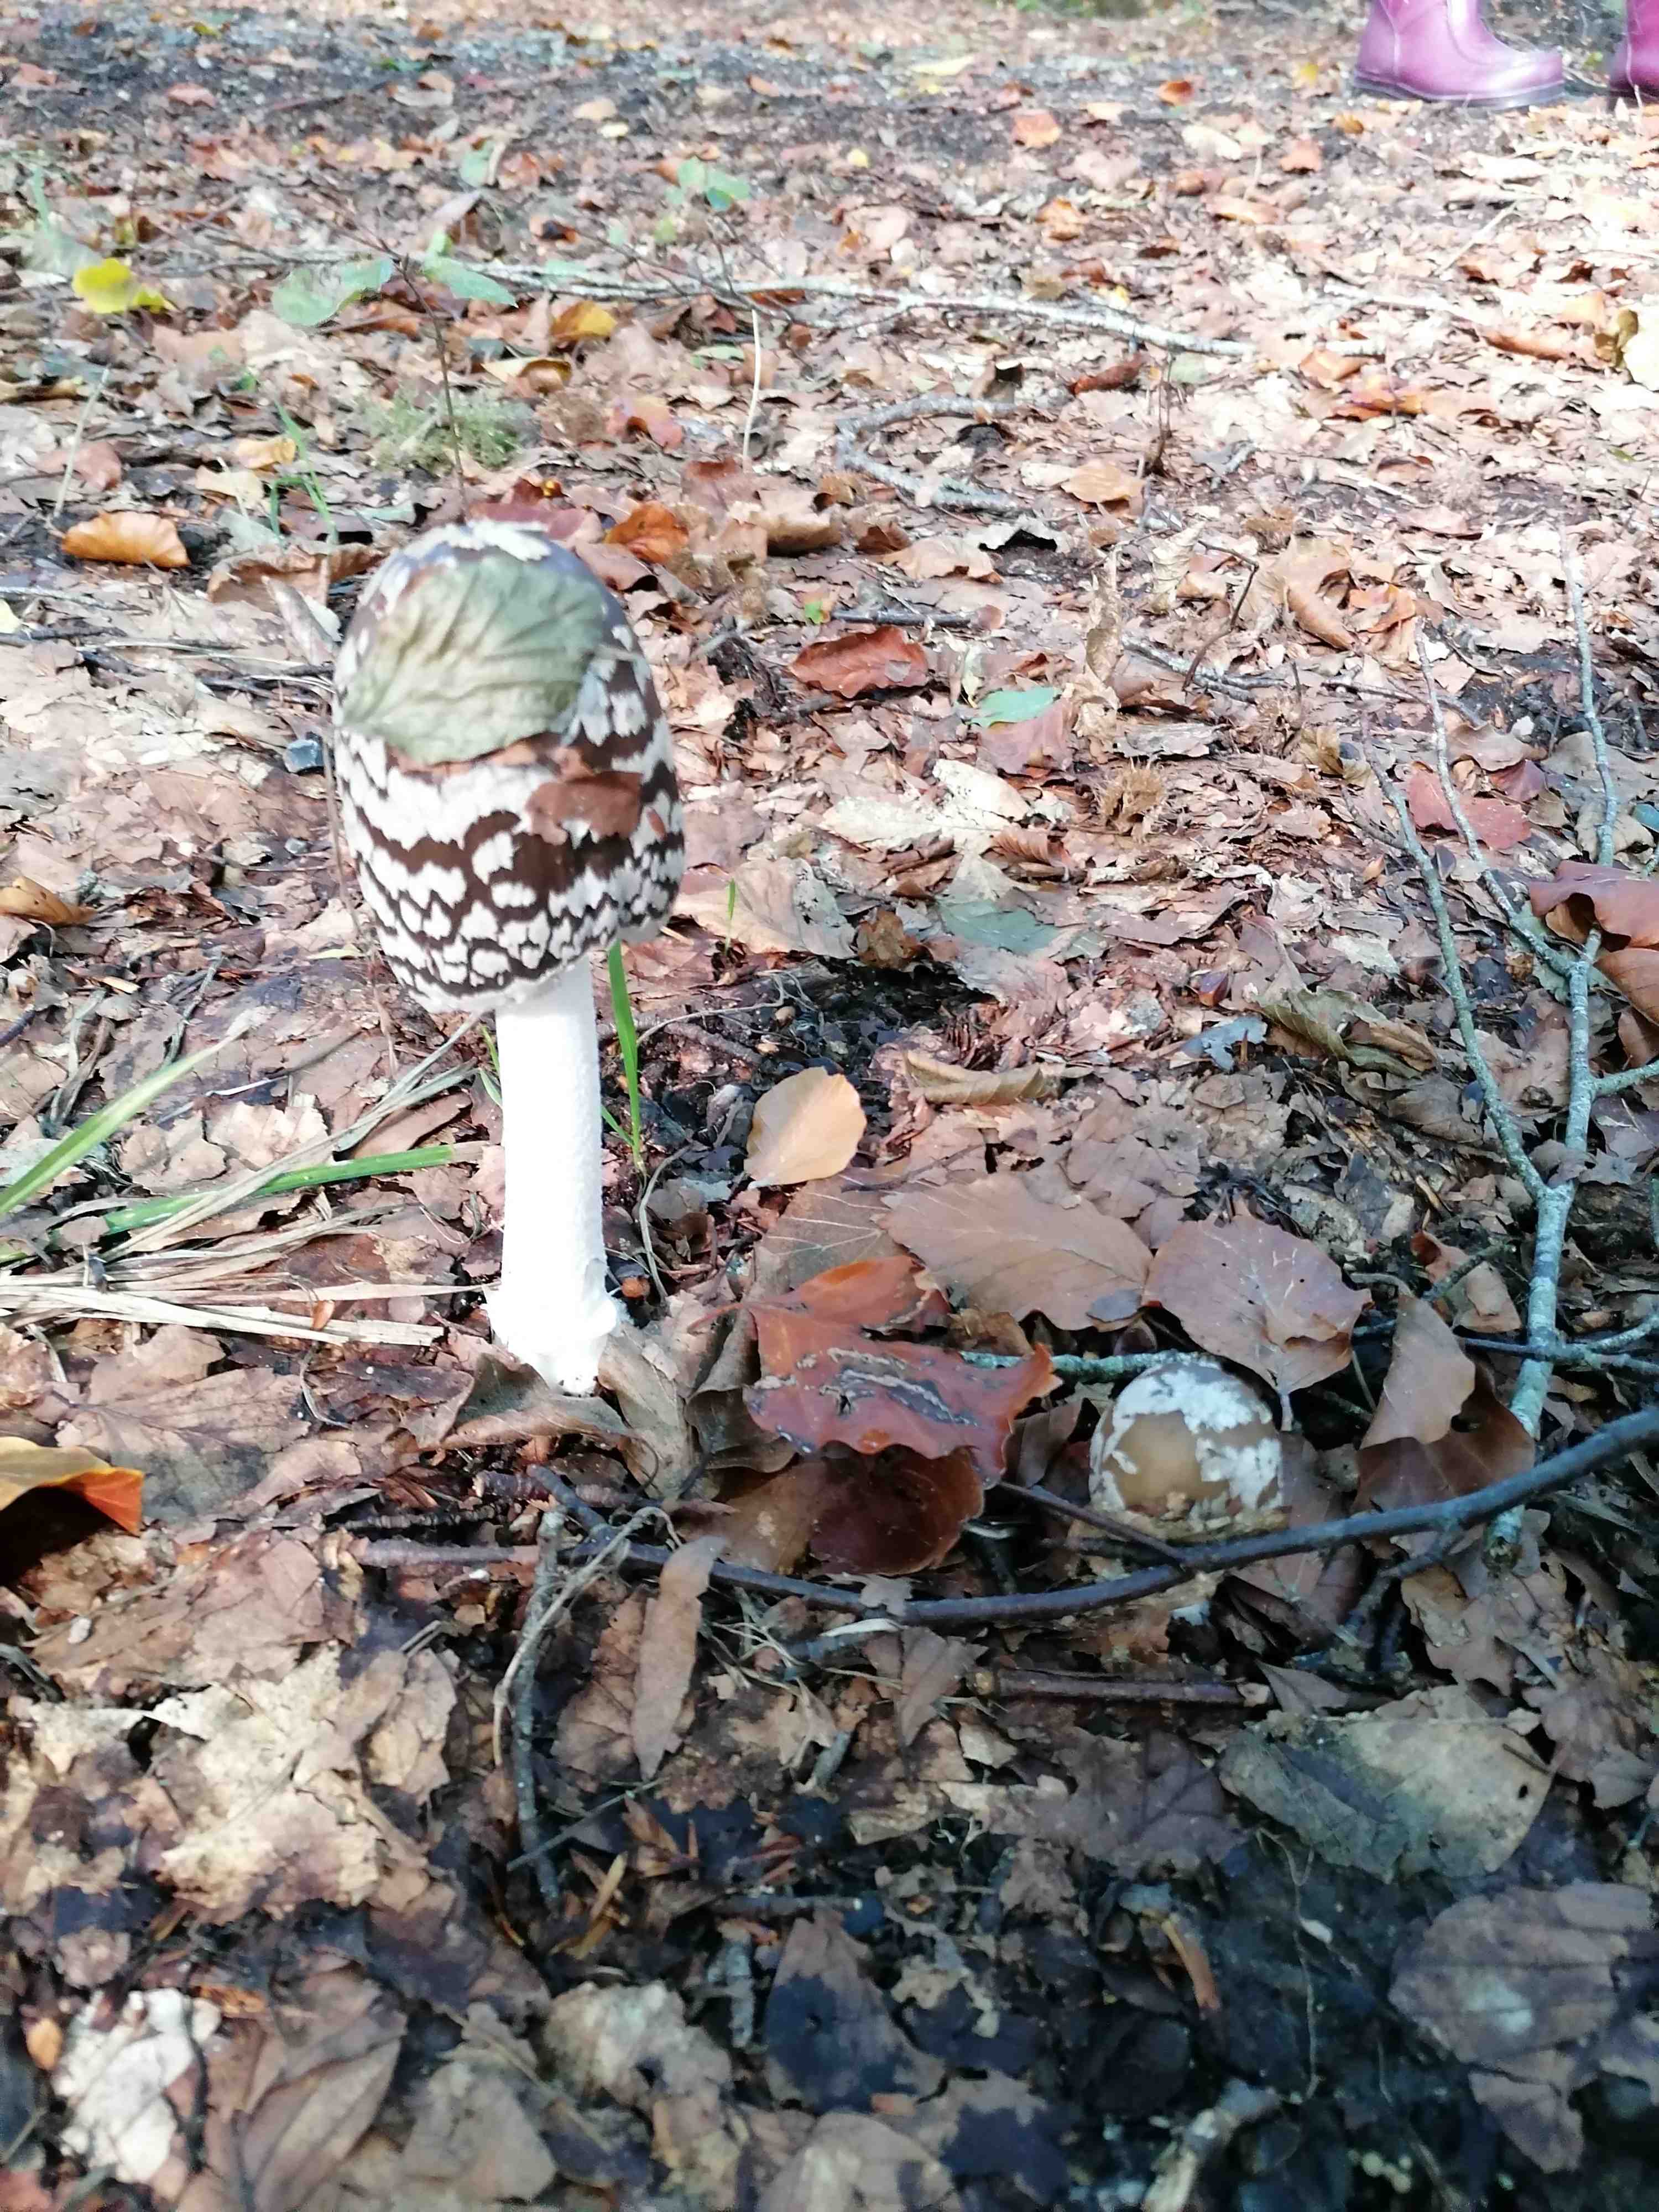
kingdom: Fungi
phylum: Basidiomycota
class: Agaricomycetes
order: Agaricales
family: Psathyrellaceae
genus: Coprinopsis
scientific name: Coprinopsis picacea
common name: skade-blækhat
